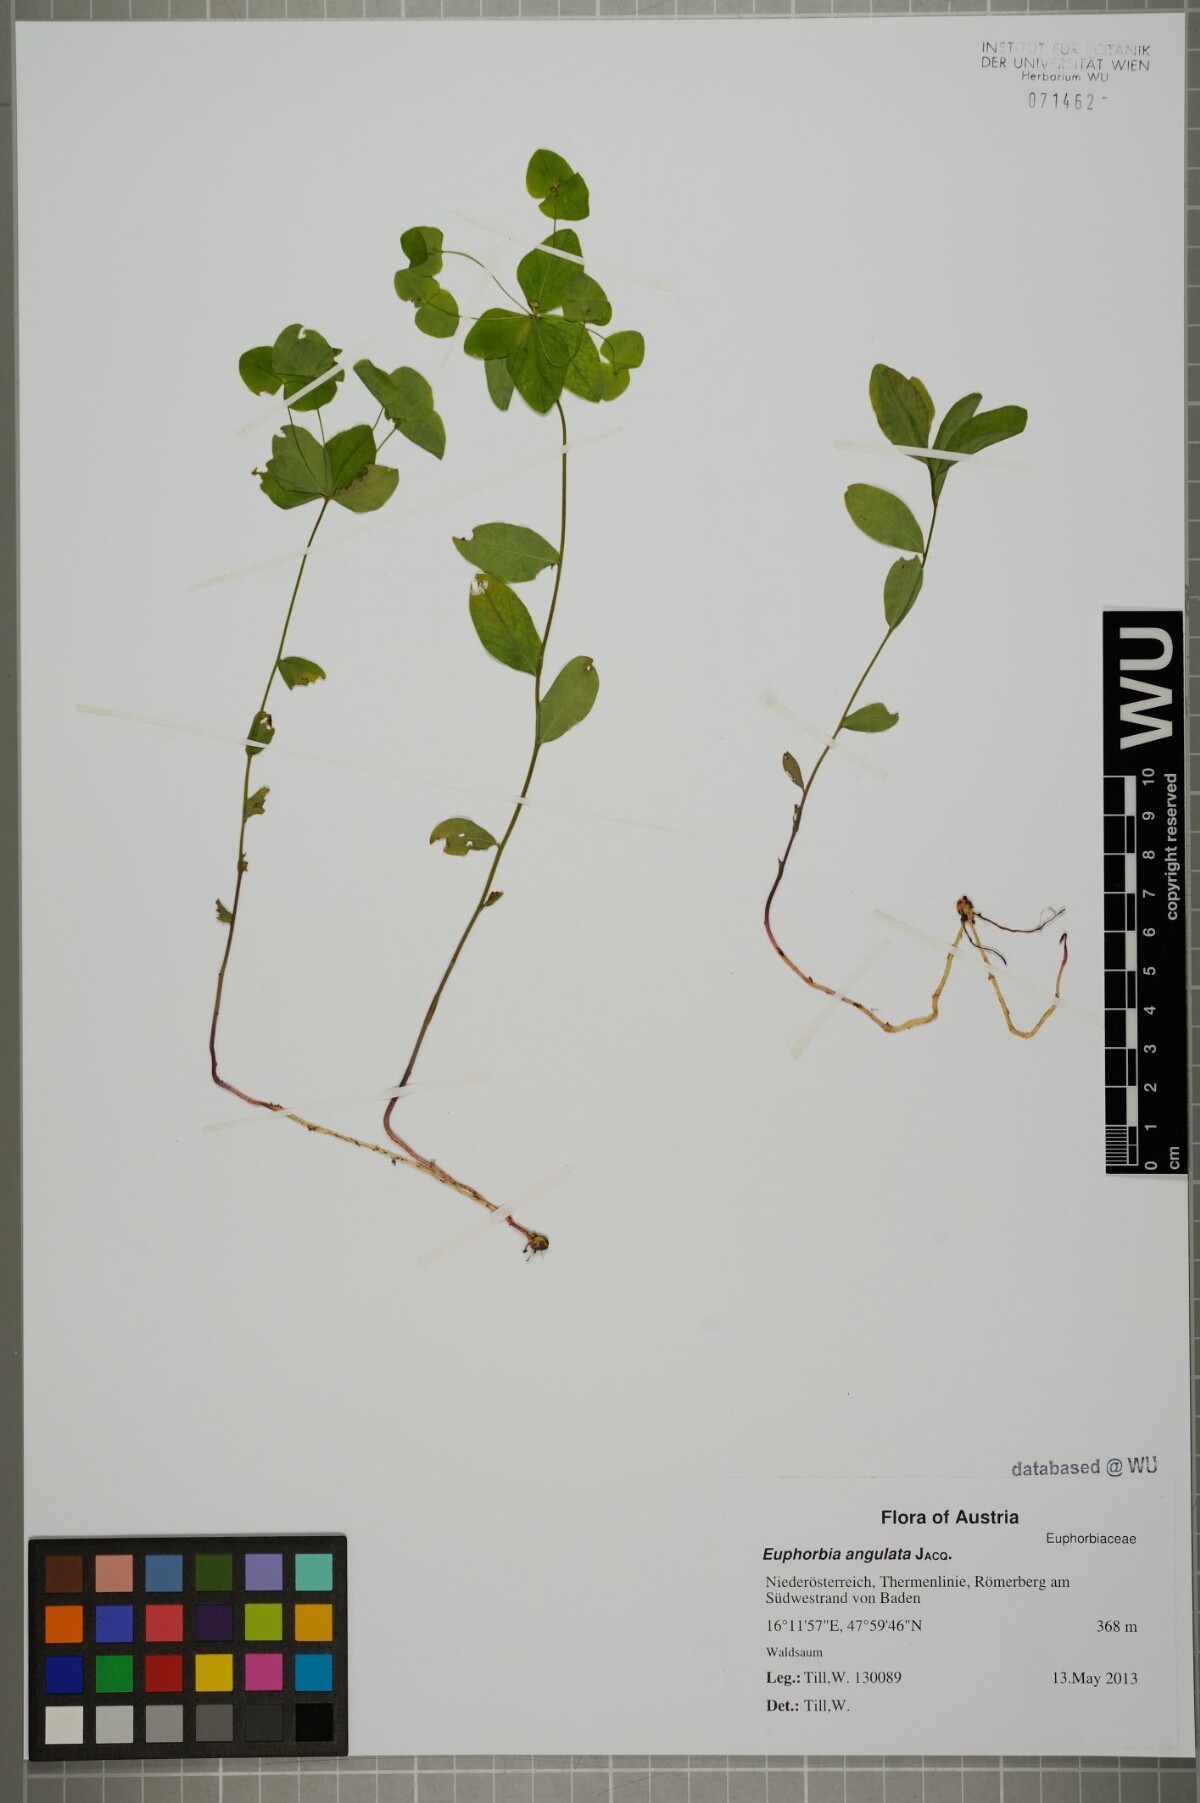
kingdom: Plantae
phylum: Tracheophyta
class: Magnoliopsida
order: Malpighiales
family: Euphorbiaceae
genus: Euphorbia
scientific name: Euphorbia angulata
